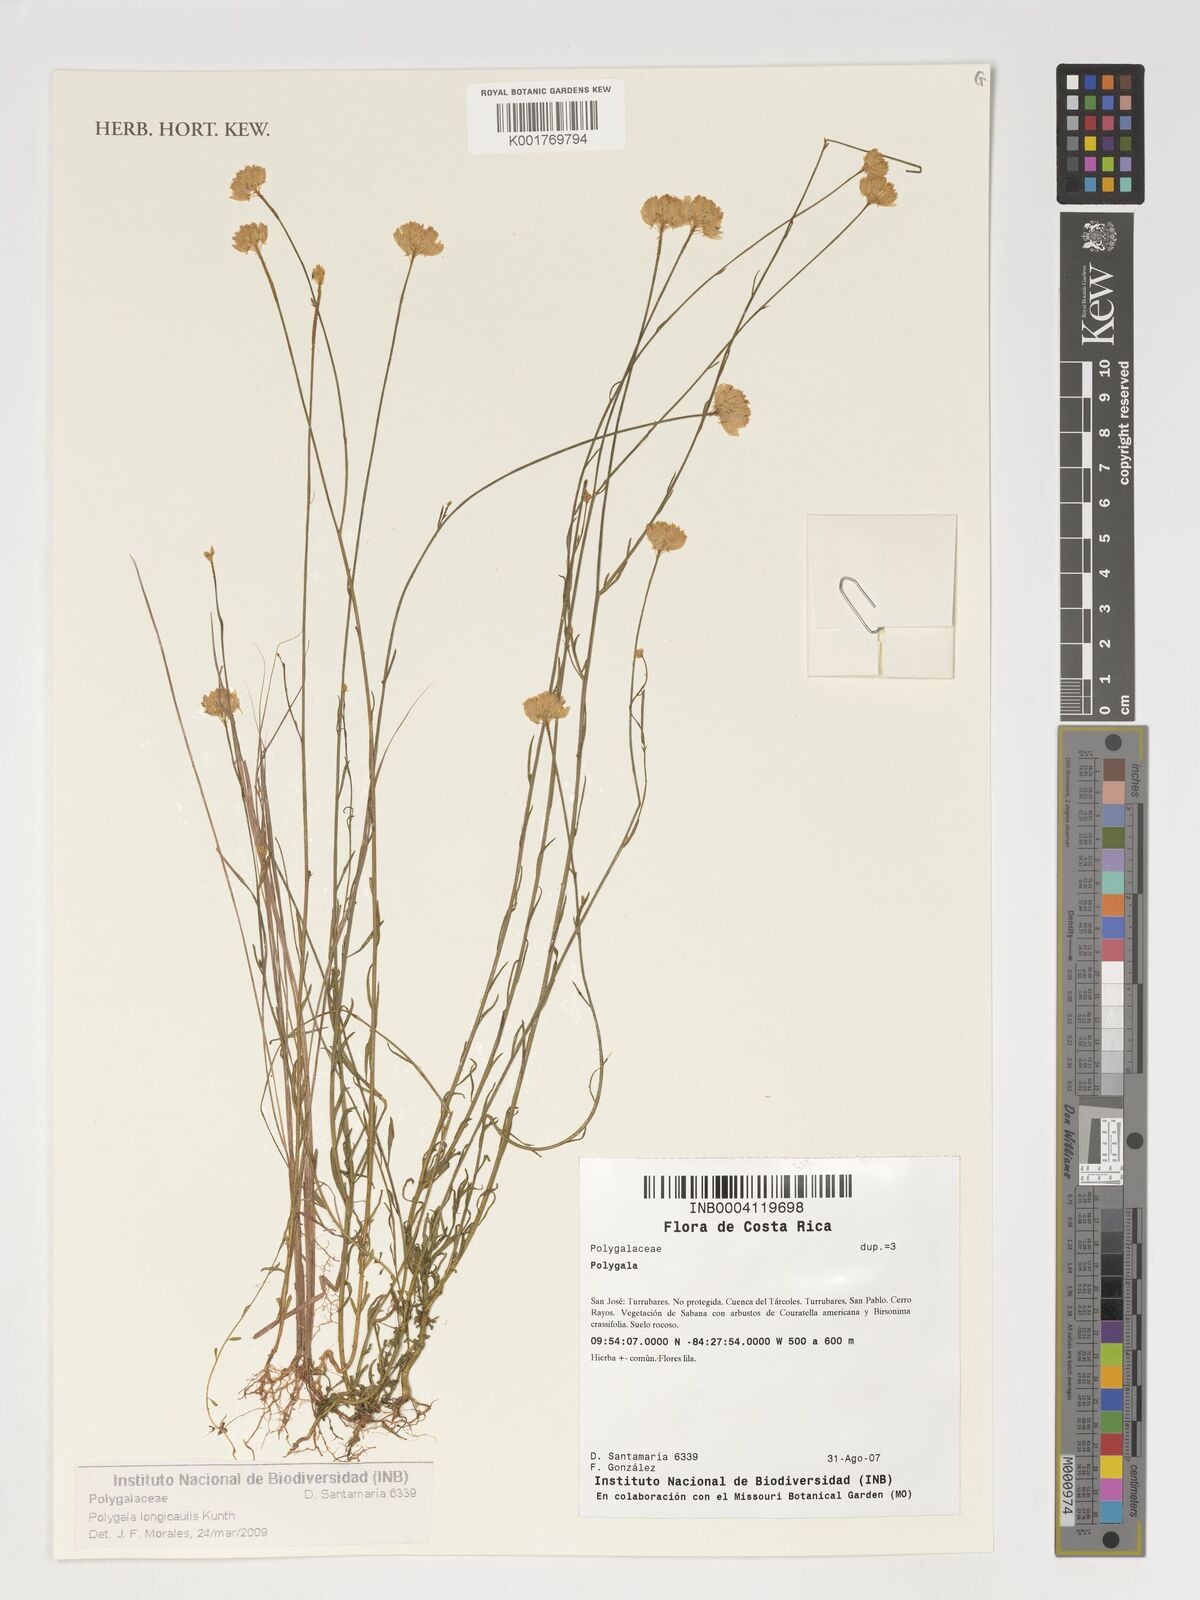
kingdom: Plantae
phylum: Tracheophyta
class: Magnoliopsida
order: Fabales
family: Polygalaceae
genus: Polygala
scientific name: Polygala longicaulis
